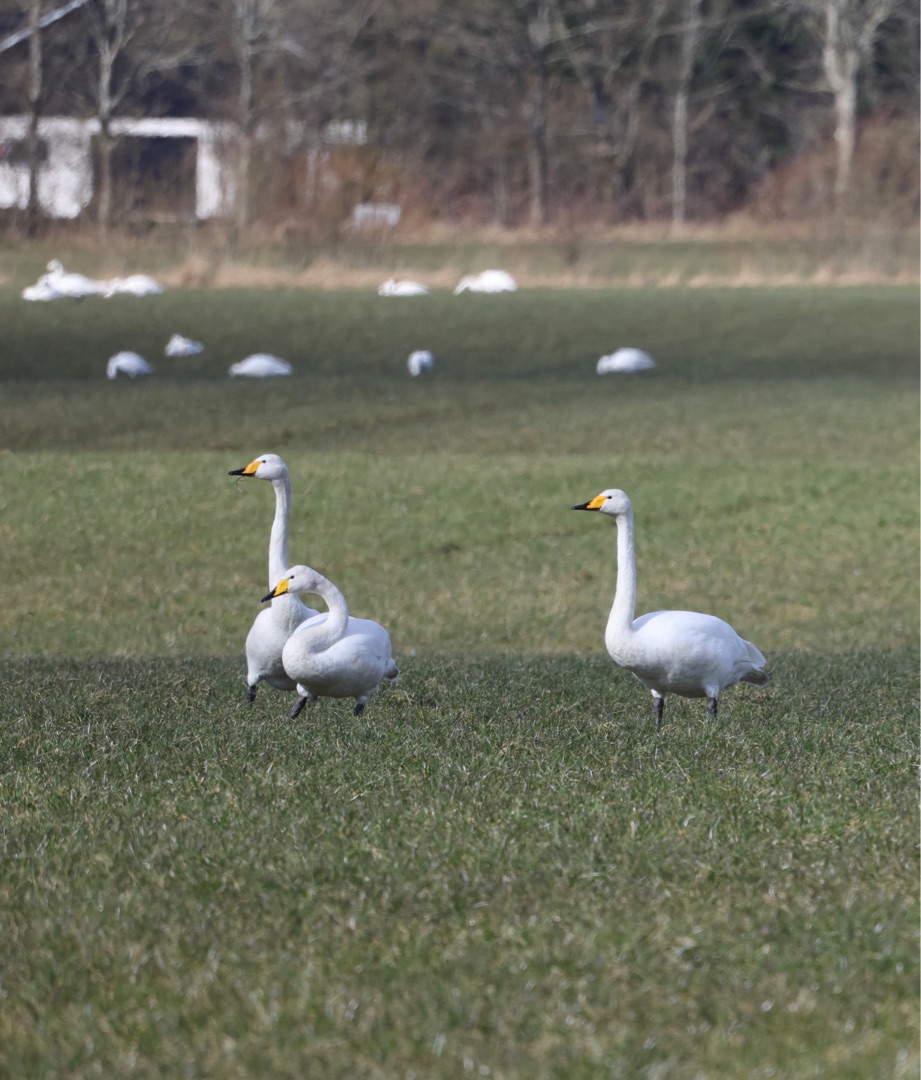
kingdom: Animalia
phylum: Chordata
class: Aves
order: Anseriformes
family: Anatidae
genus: Cygnus
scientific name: Cygnus cygnus
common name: Sangsvane
